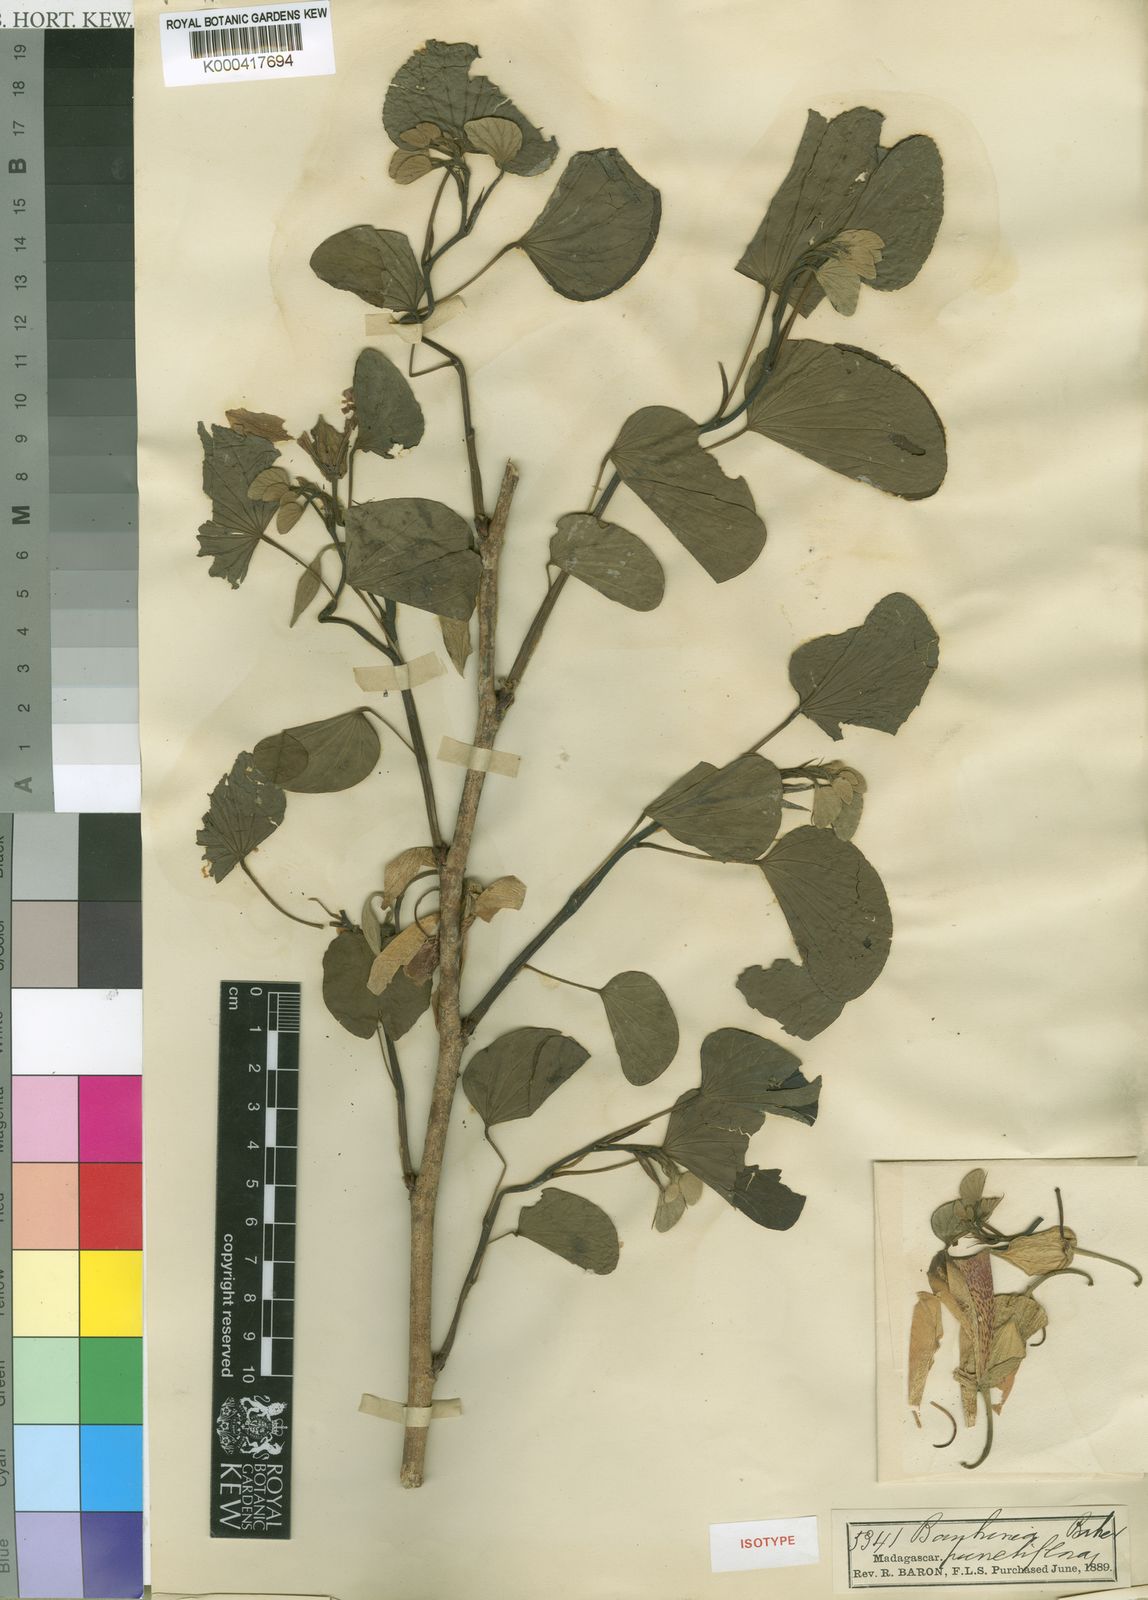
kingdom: Plantae
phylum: Tracheophyta
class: Magnoliopsida
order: Fabales
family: Fabaceae
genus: Bauhinia
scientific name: Bauhinia monandra
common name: Napoleon's plume
